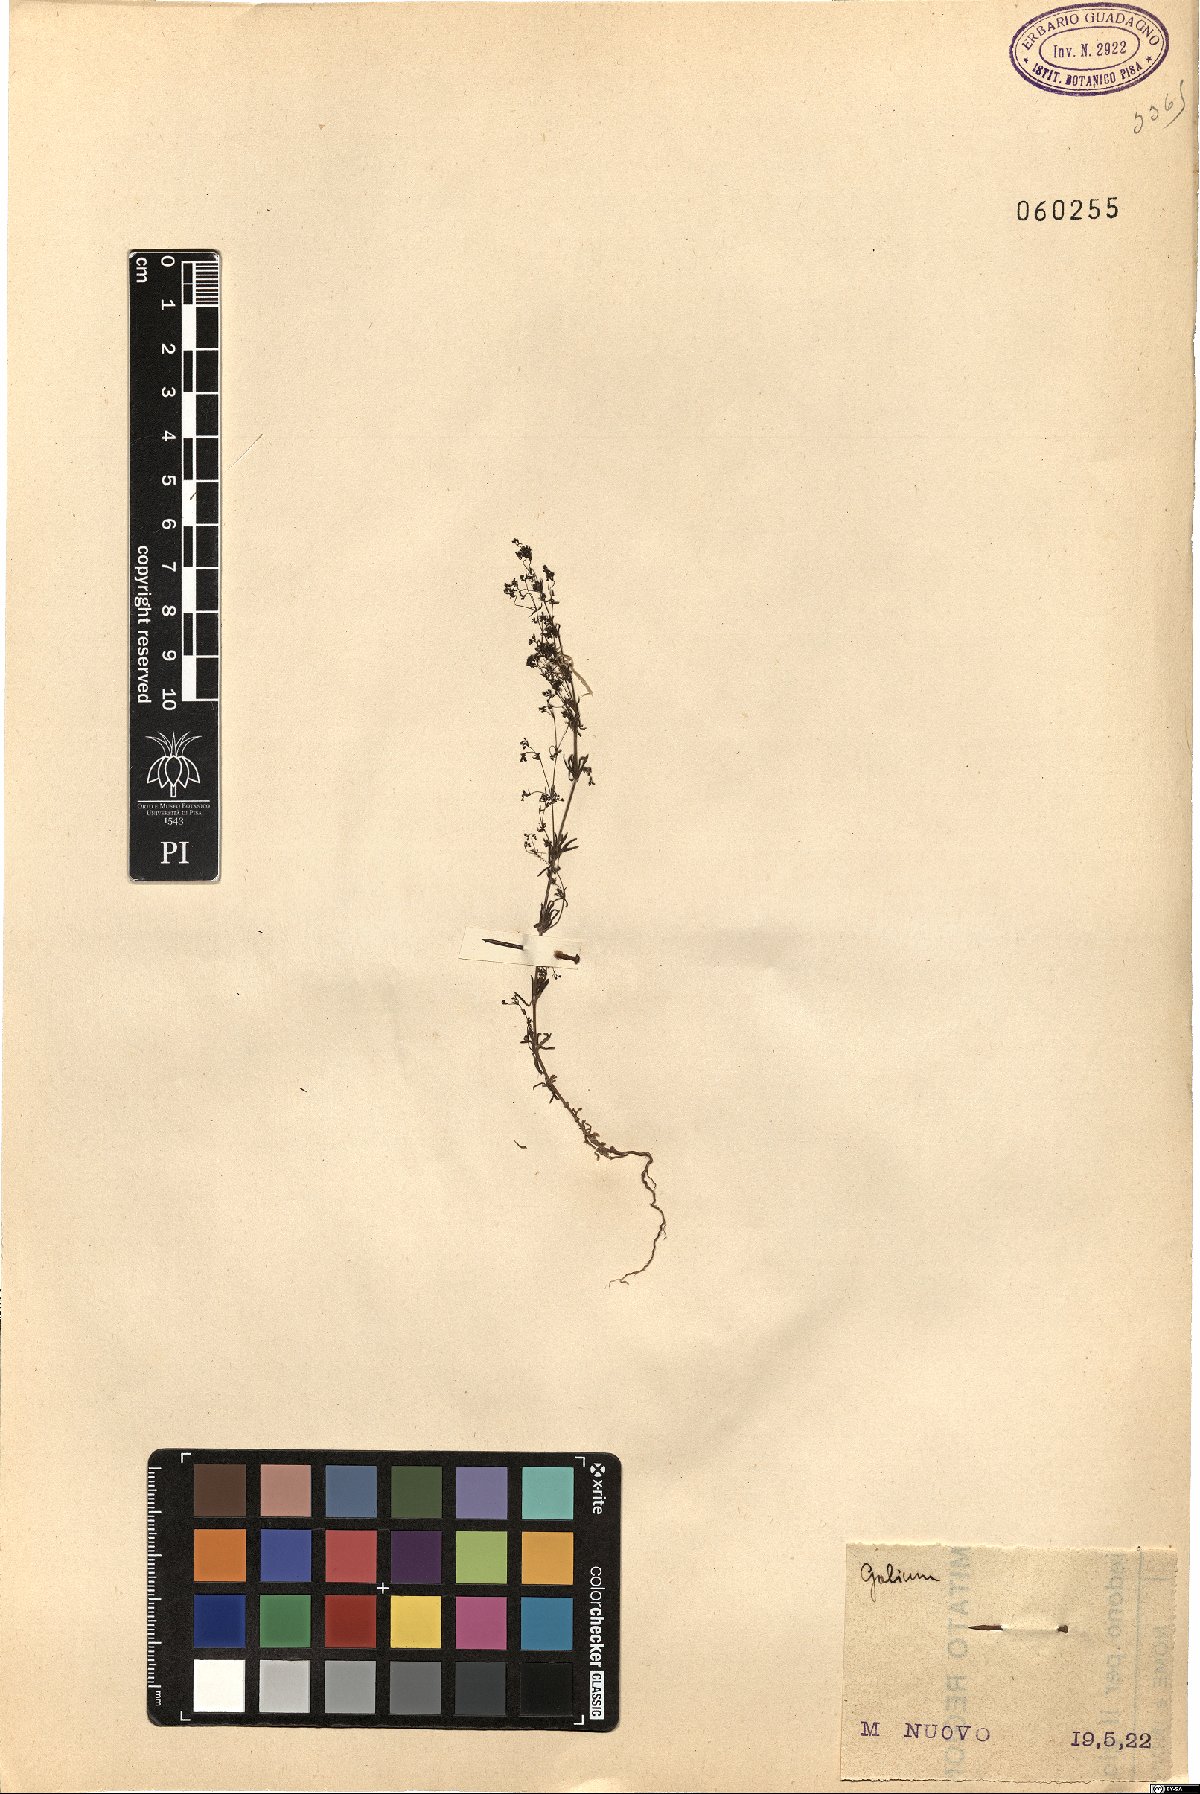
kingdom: Plantae
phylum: Tracheophyta
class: Magnoliopsida
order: Gentianales
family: Rubiaceae
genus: Galium
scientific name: Galium
